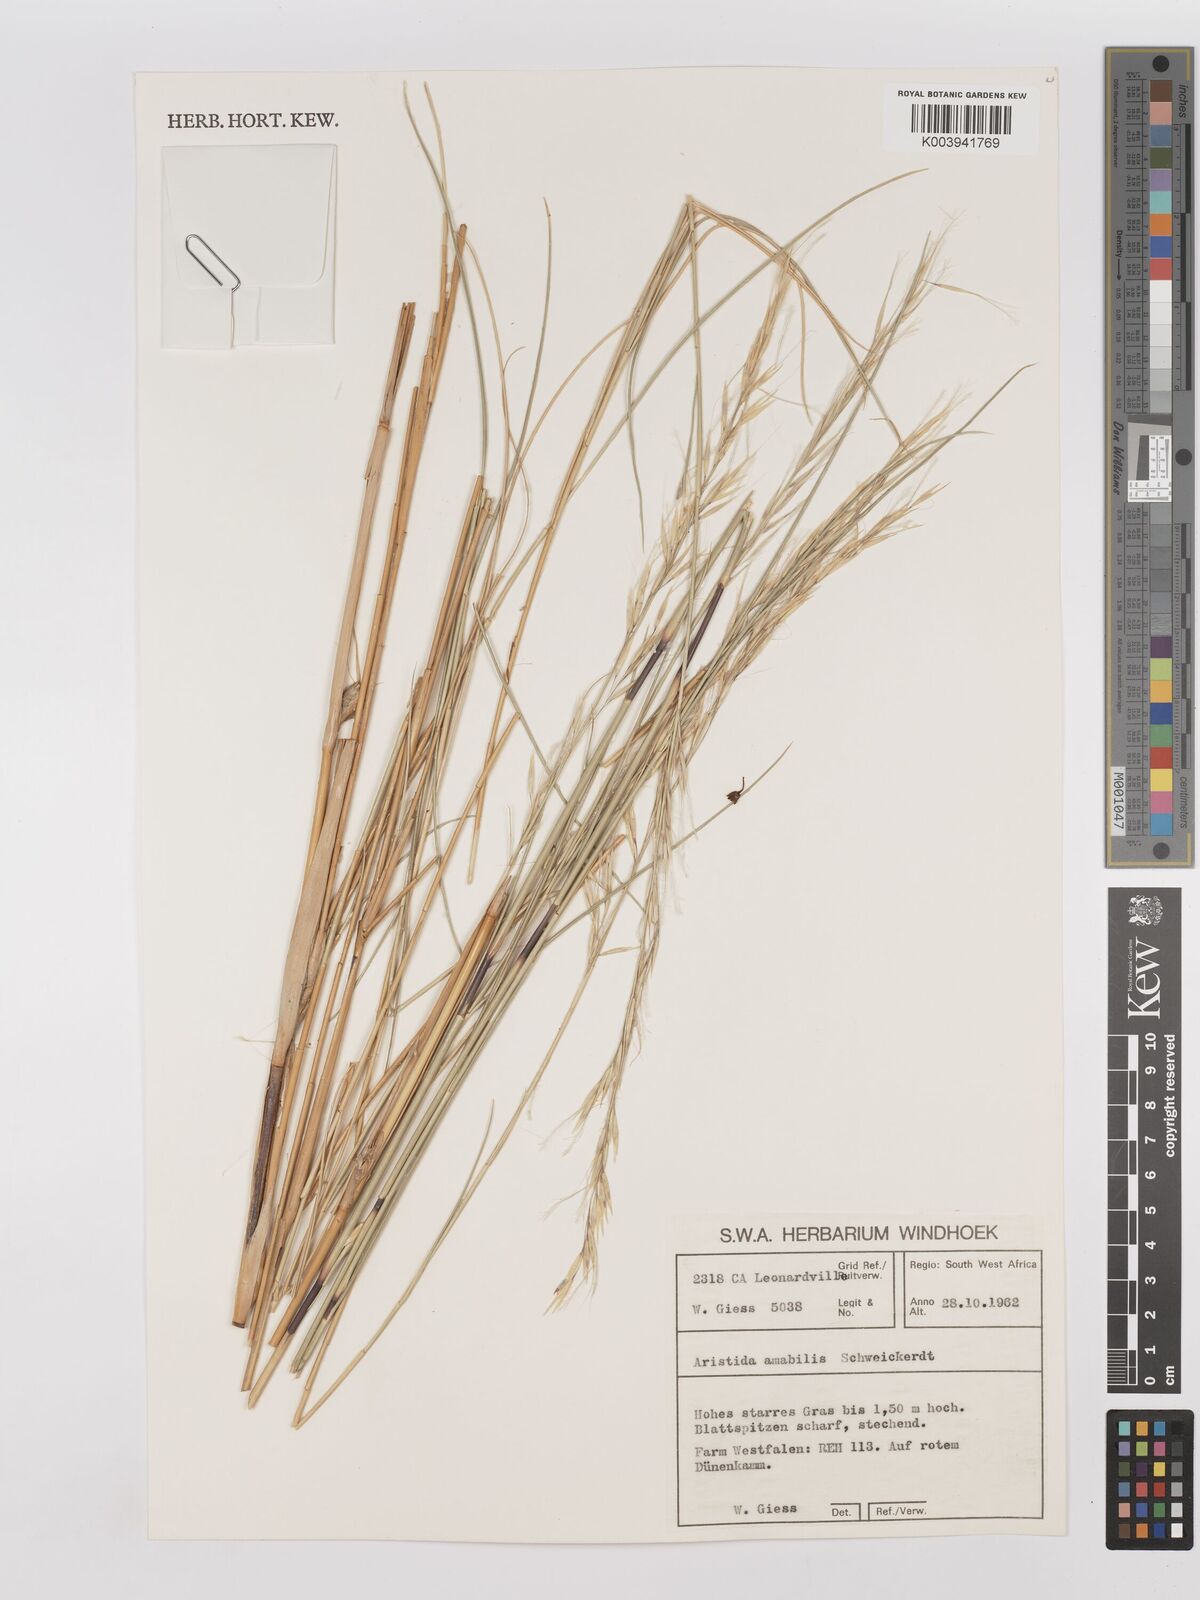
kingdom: Plantae
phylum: Tracheophyta
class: Liliopsida
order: Poales
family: Poaceae
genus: Stipagrostis
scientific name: Stipagrostis amabilis
